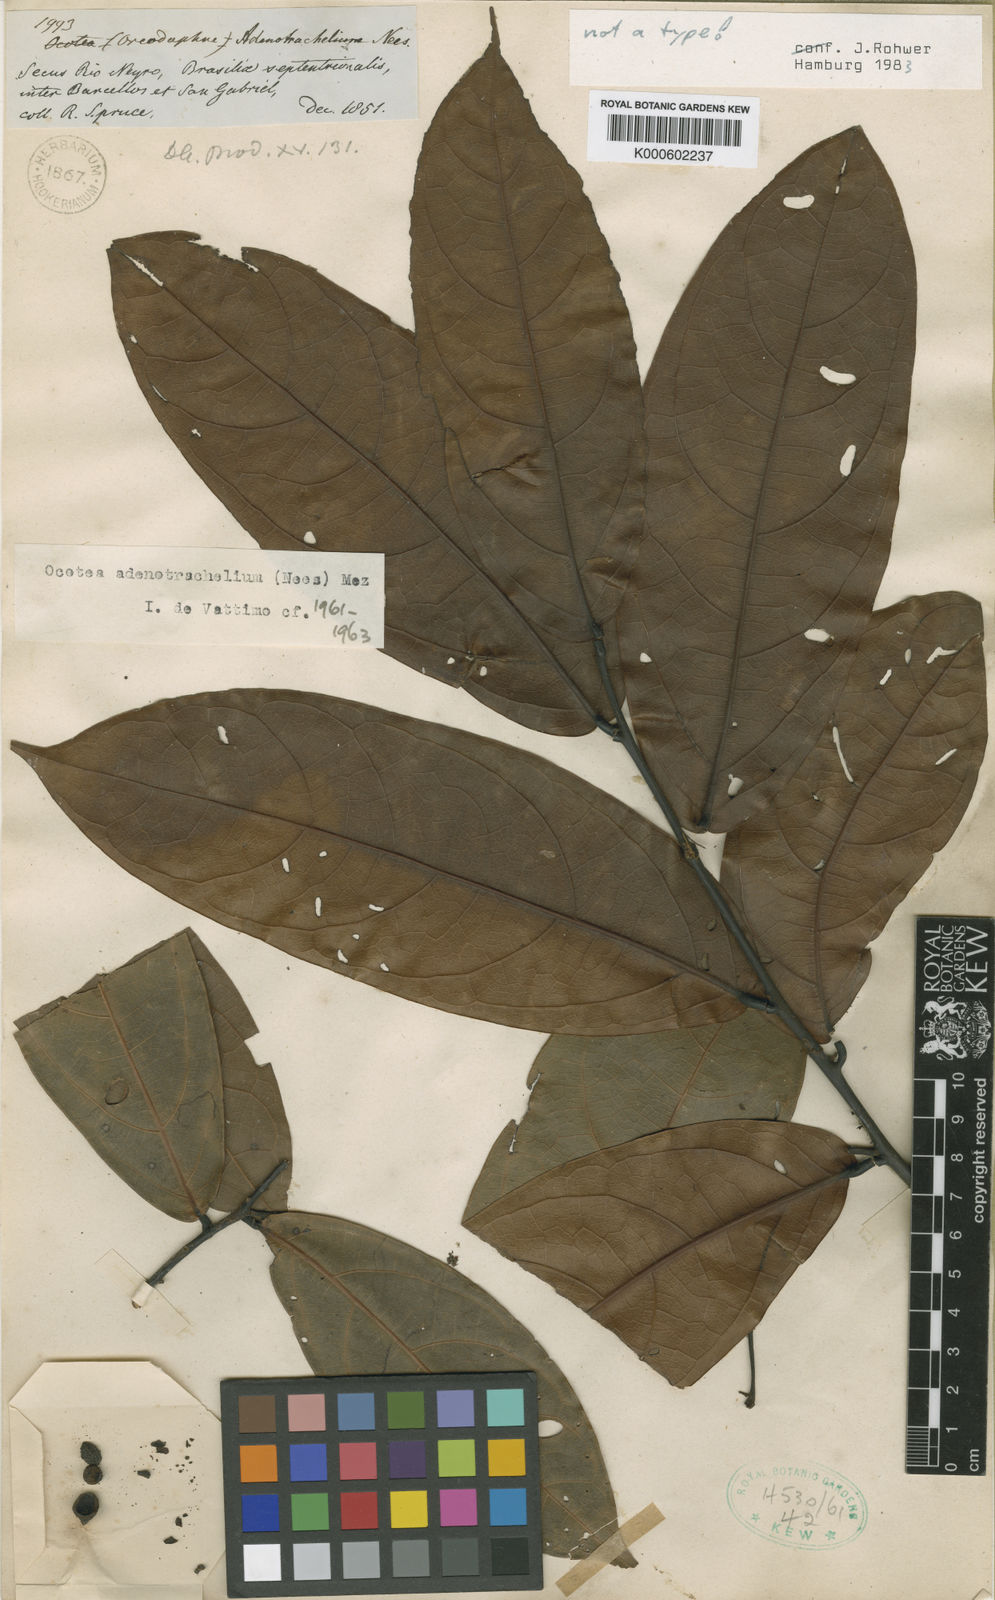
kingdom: Plantae
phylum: Tracheophyta
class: Magnoliopsida
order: Laurales
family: Lauraceae
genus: Ocotea
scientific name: Ocotea adenotrachelium
